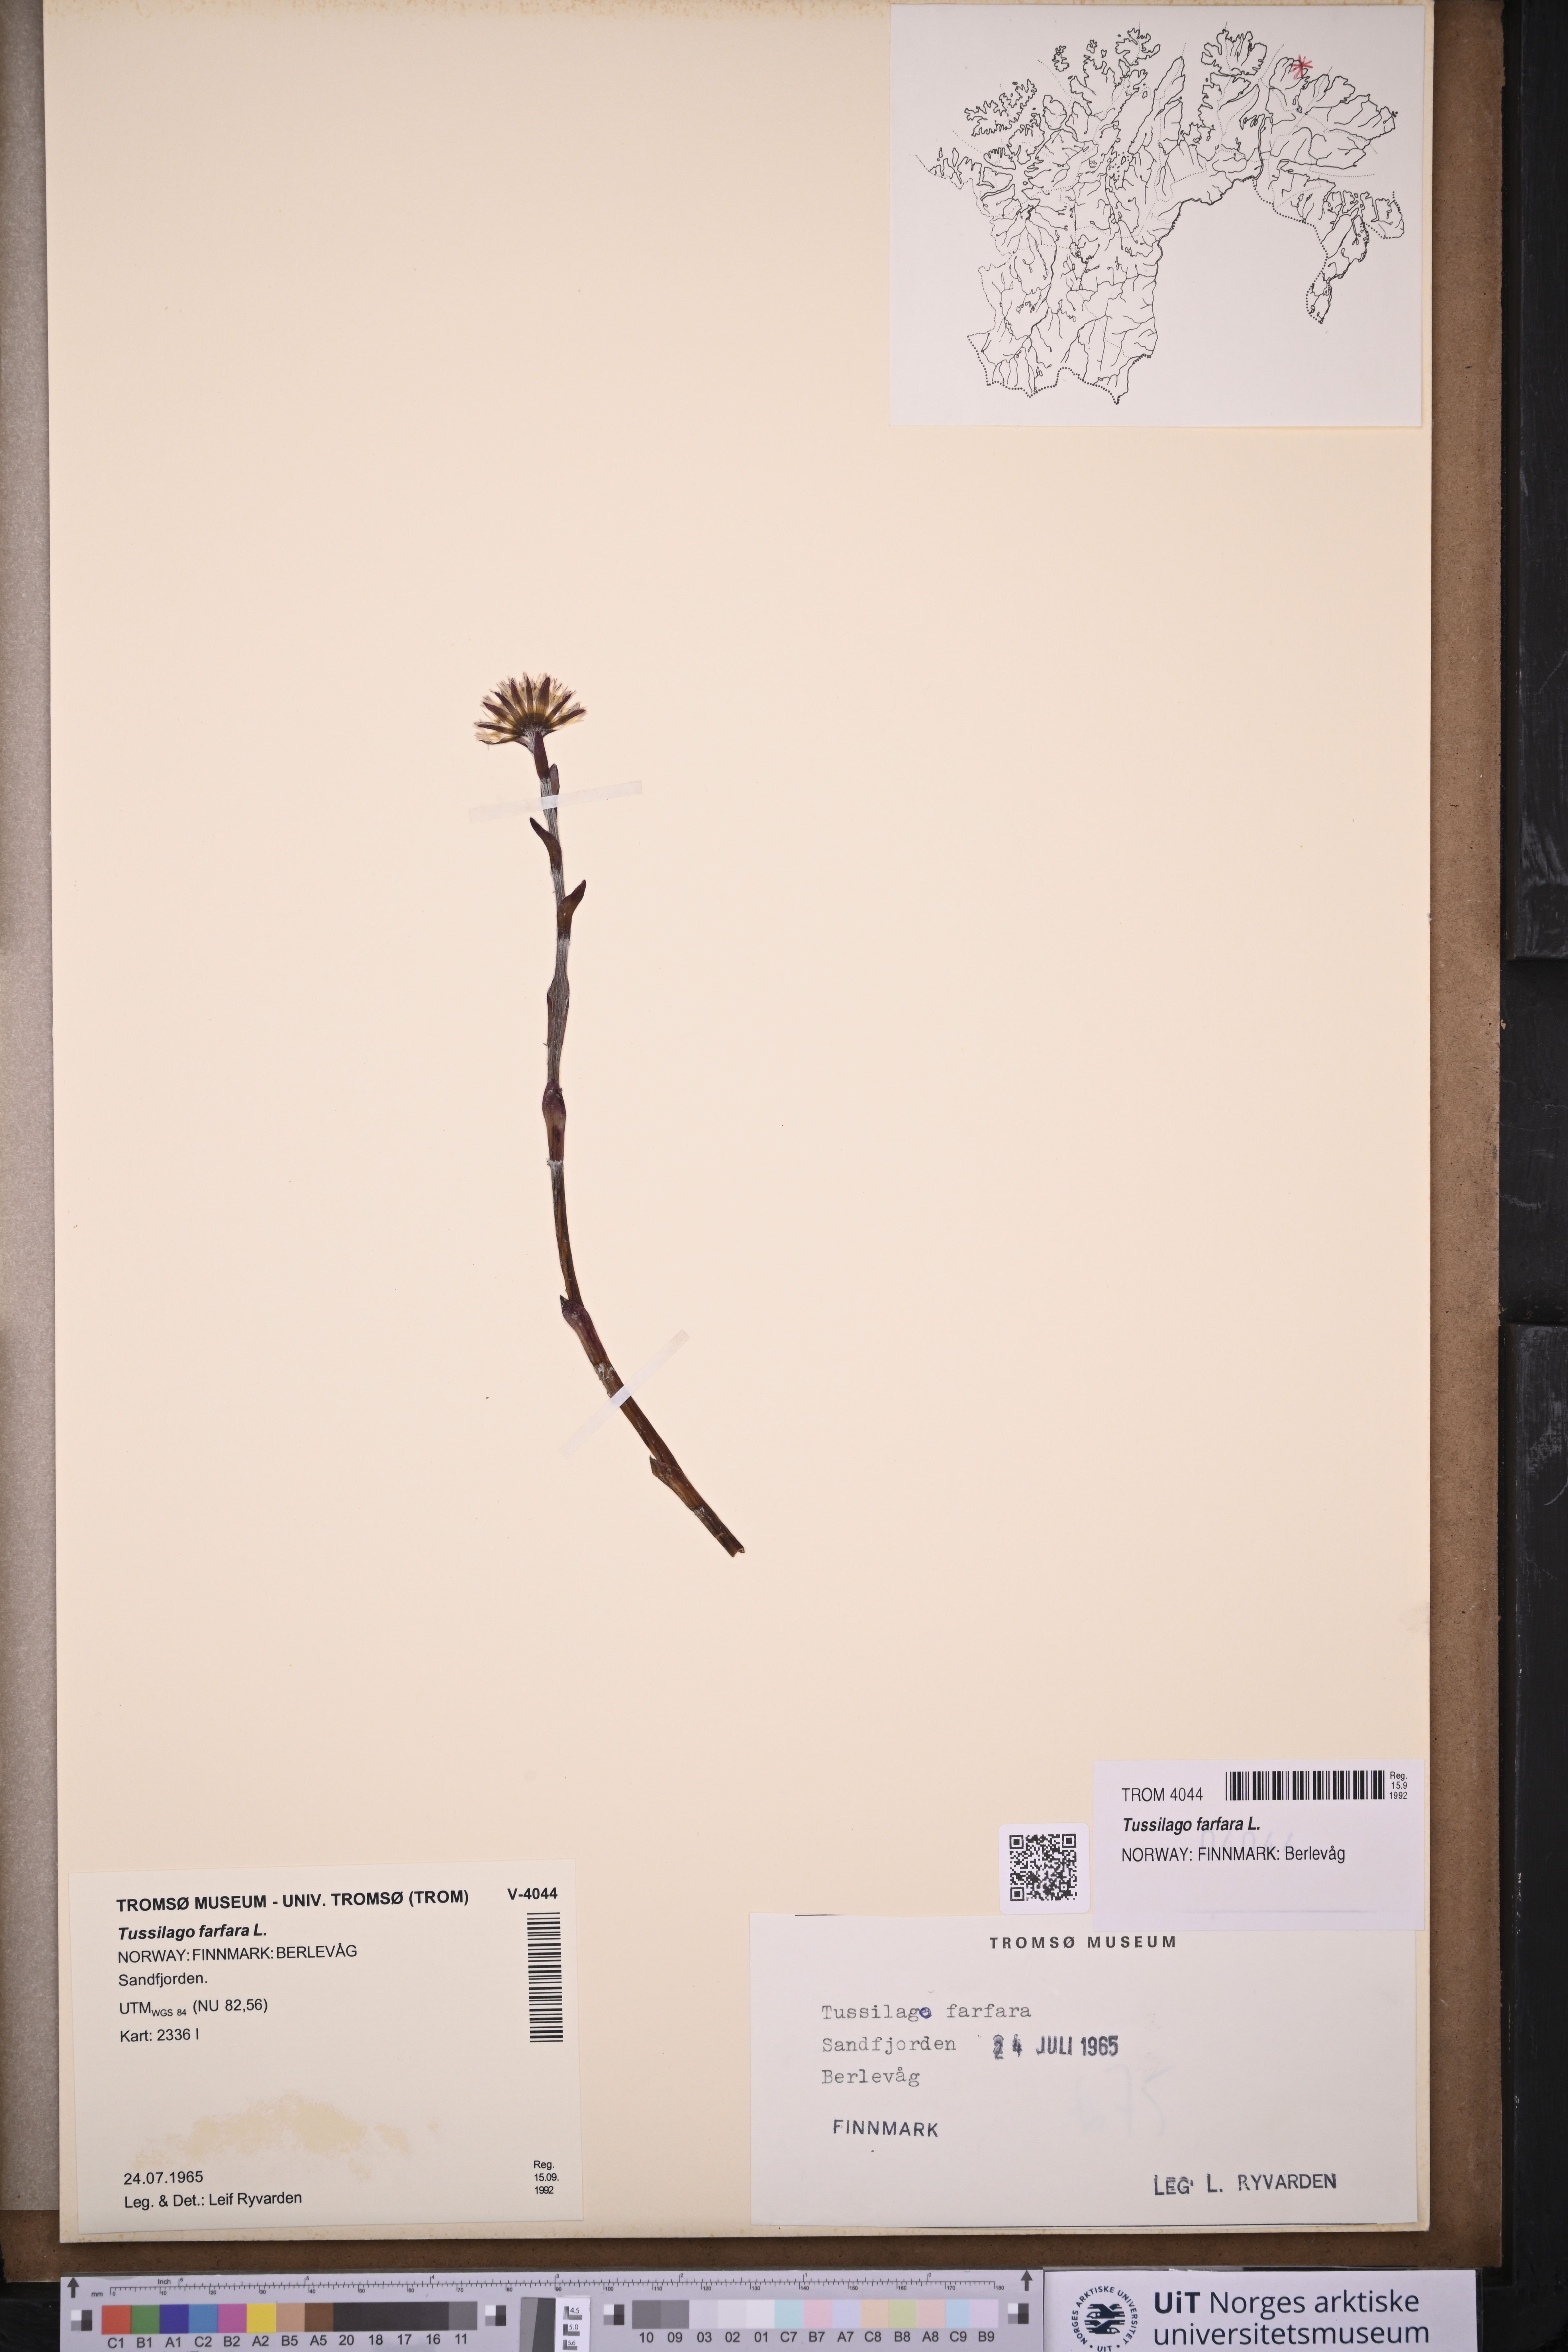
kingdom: Plantae
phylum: Tracheophyta
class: Magnoliopsida
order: Asterales
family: Asteraceae
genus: Tussilago
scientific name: Tussilago farfara
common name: Coltsfoot
